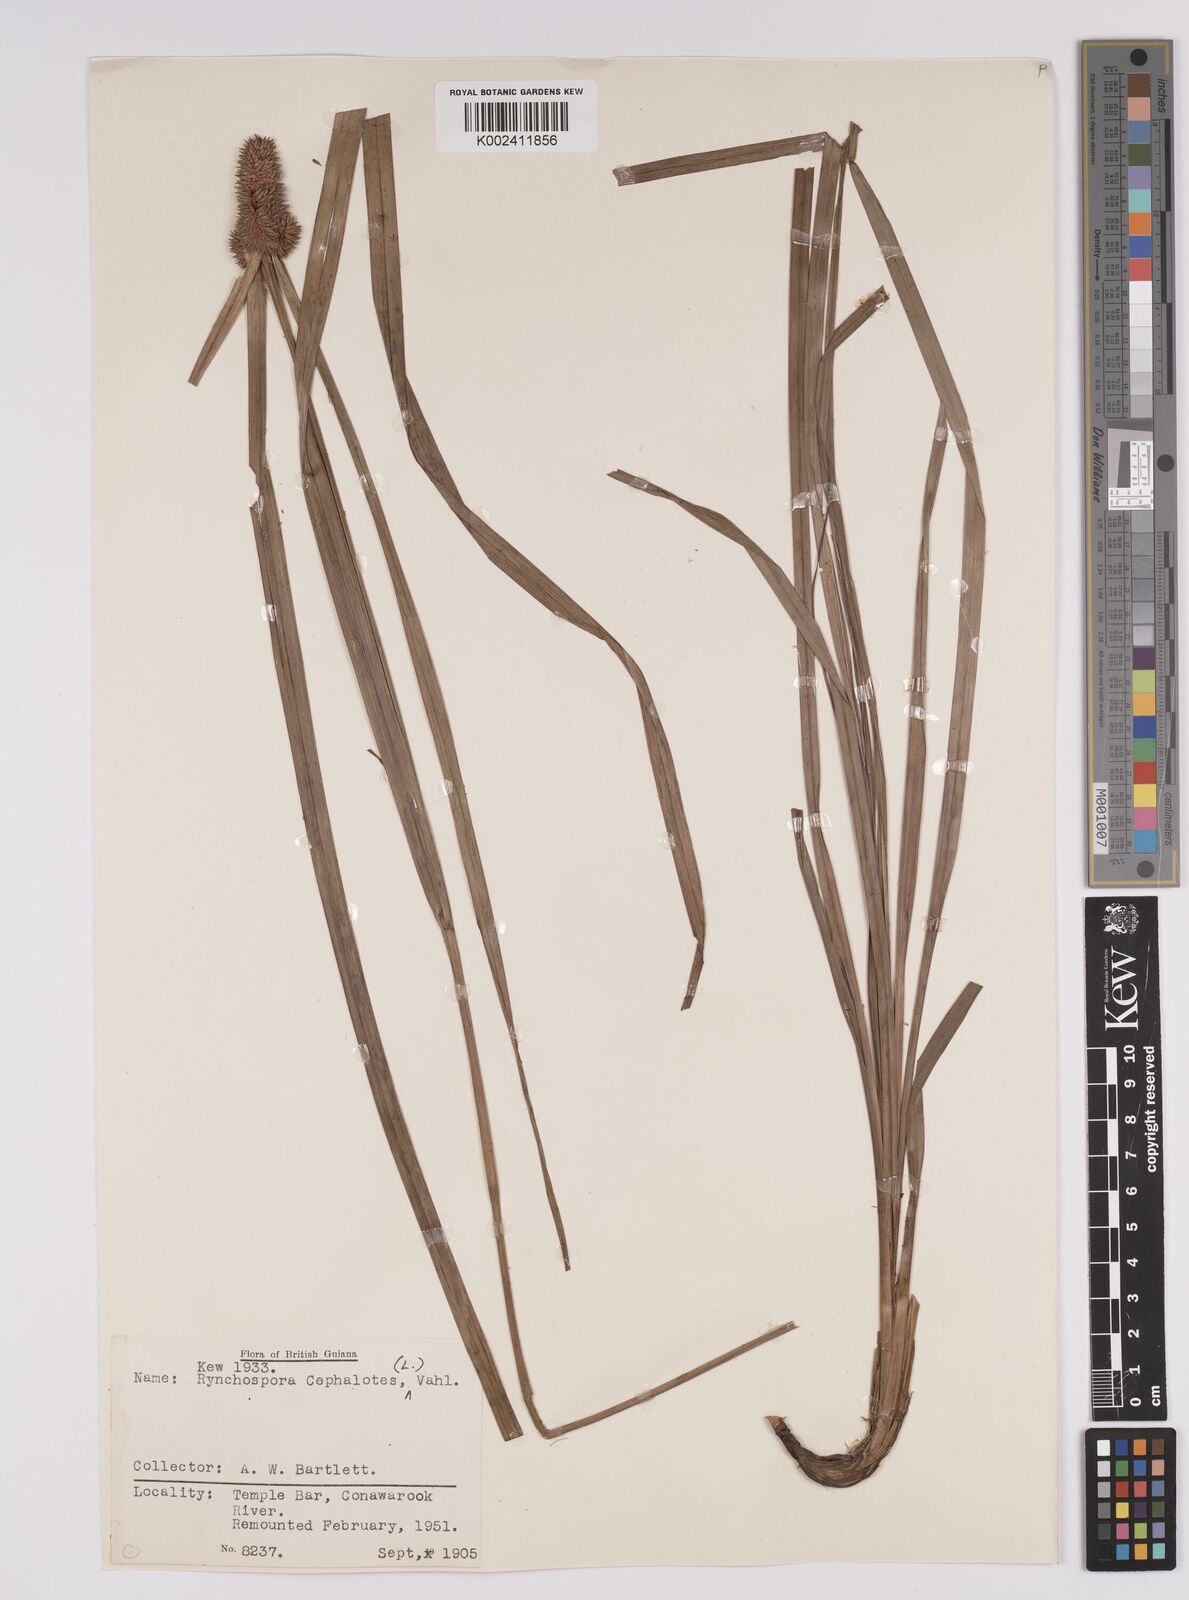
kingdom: Plantae
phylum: Tracheophyta
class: Liliopsida
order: Poales
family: Cyperaceae
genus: Rhynchospora
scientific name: Rhynchospora cephalotes
